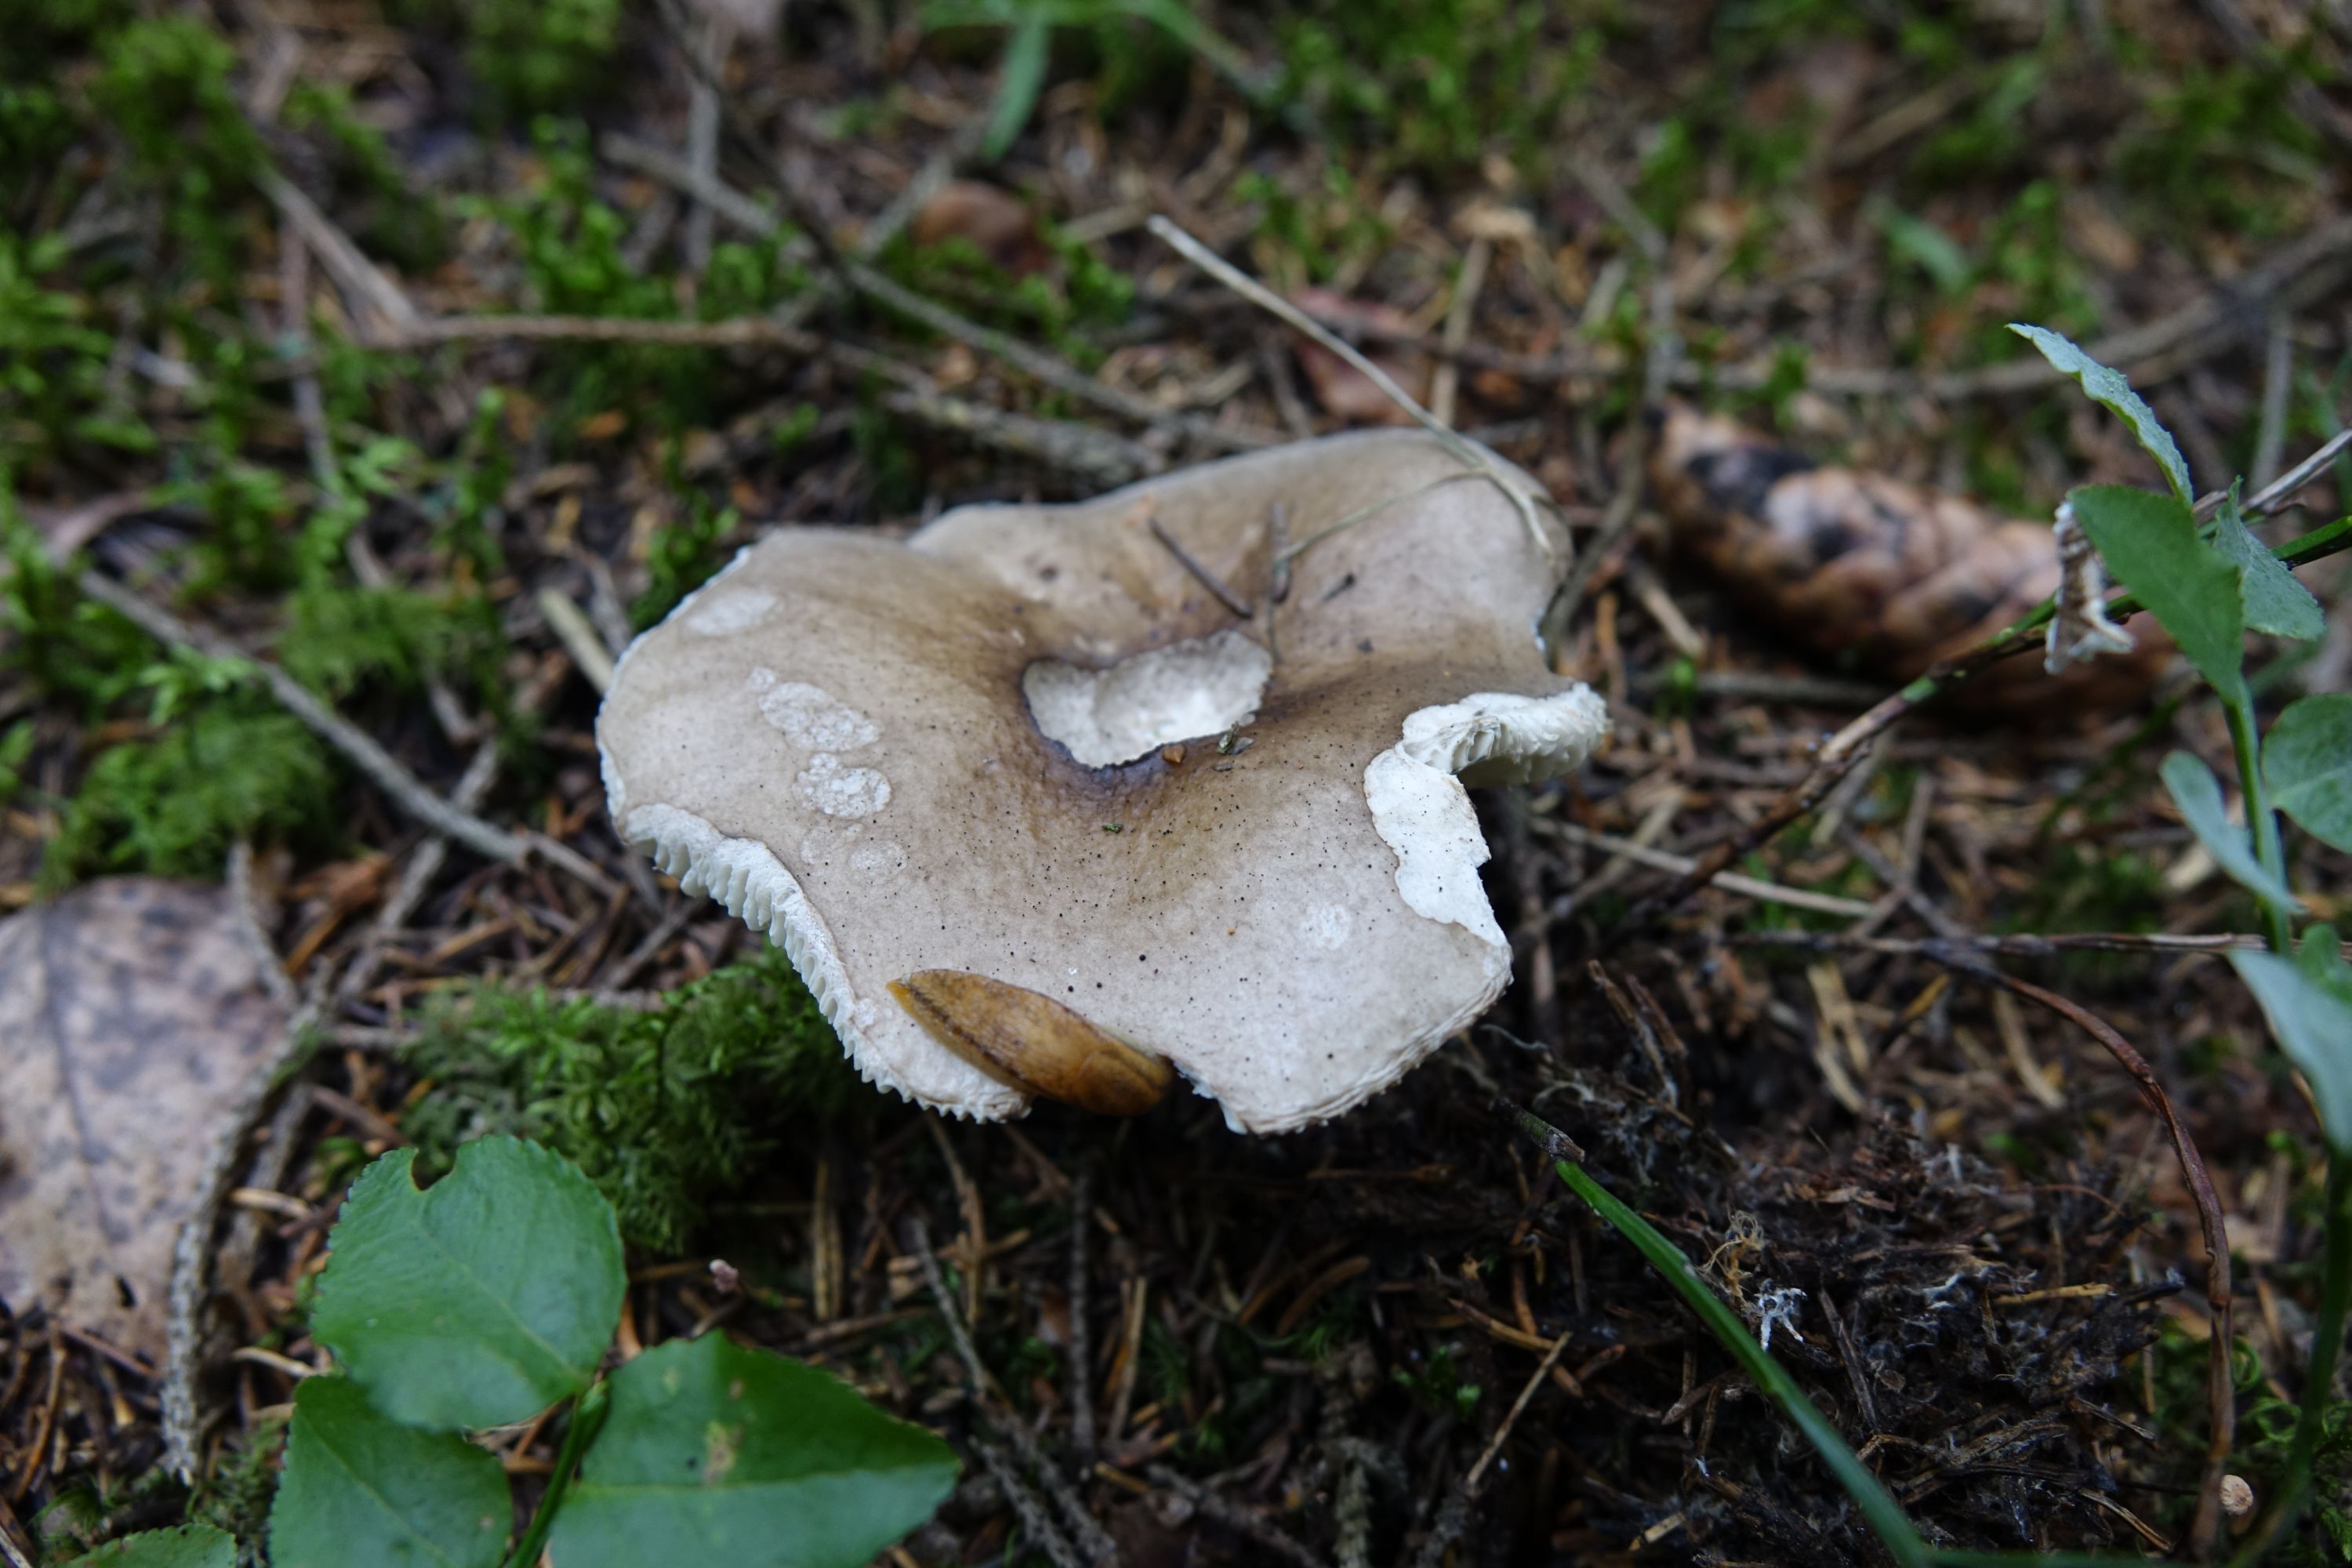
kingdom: Fungi
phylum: Basidiomycota
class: Agaricomycetes
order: Russulales
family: Russulaceae
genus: Russula
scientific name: Russula consobrina
